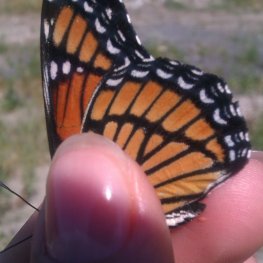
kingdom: Animalia
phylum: Arthropoda
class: Insecta
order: Lepidoptera
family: Nymphalidae
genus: Limenitis
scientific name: Limenitis archippus
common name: Viceroy
